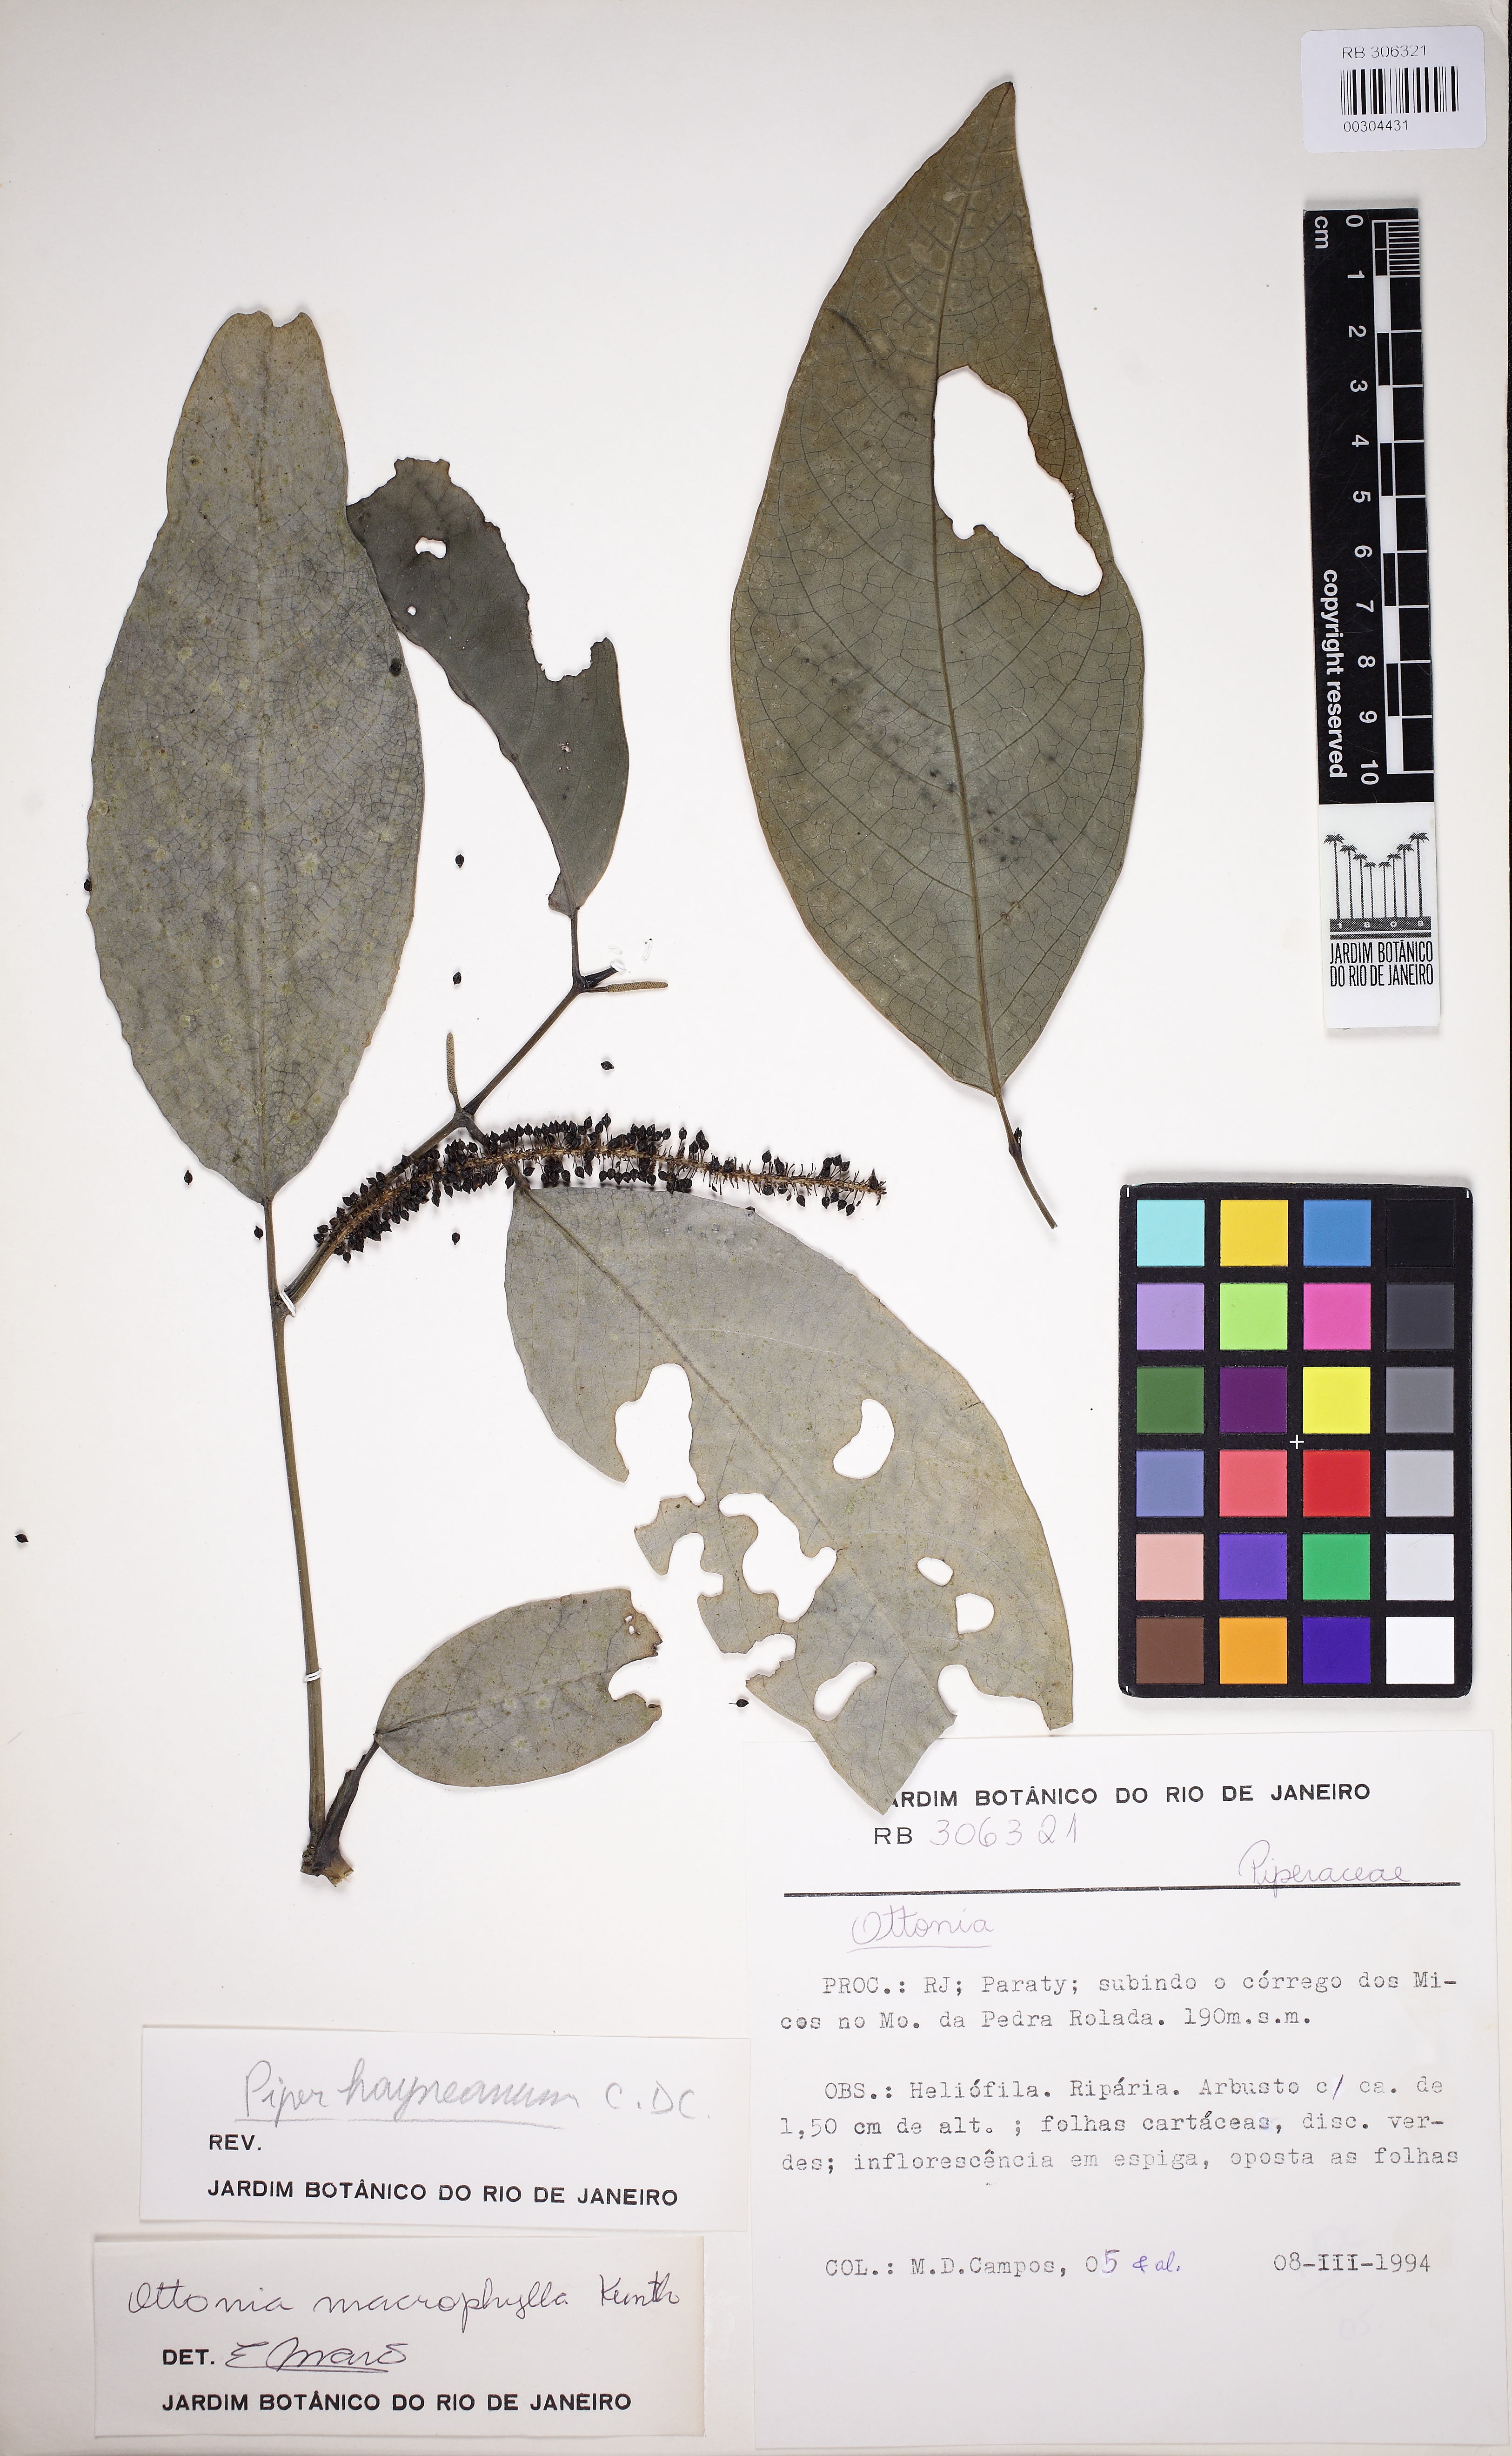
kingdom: Plantae
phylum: Tracheophyta
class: Magnoliopsida
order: Piperales
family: Piperaceae
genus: Piper
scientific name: Piper hayneanum
